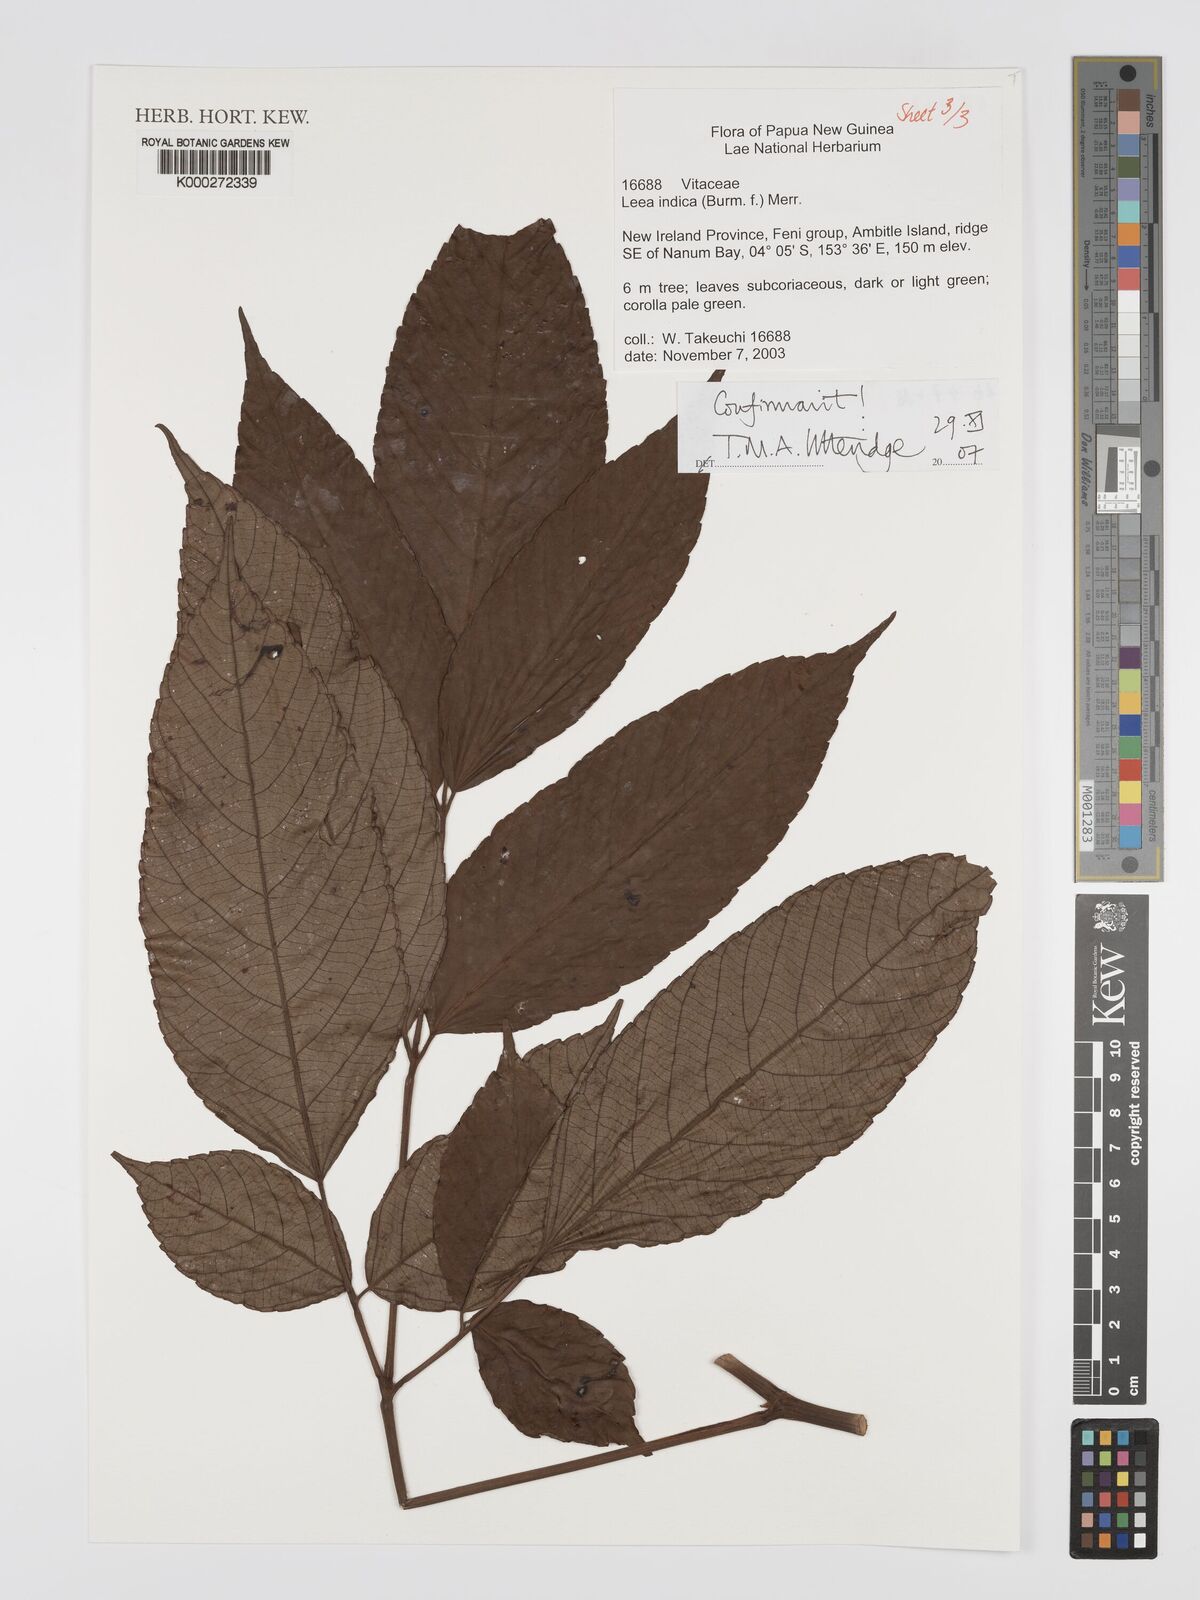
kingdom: Plantae
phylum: Tracheophyta
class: Magnoliopsida
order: Vitales
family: Vitaceae
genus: Leea
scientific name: Leea indica
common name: Bandicoot-berry
